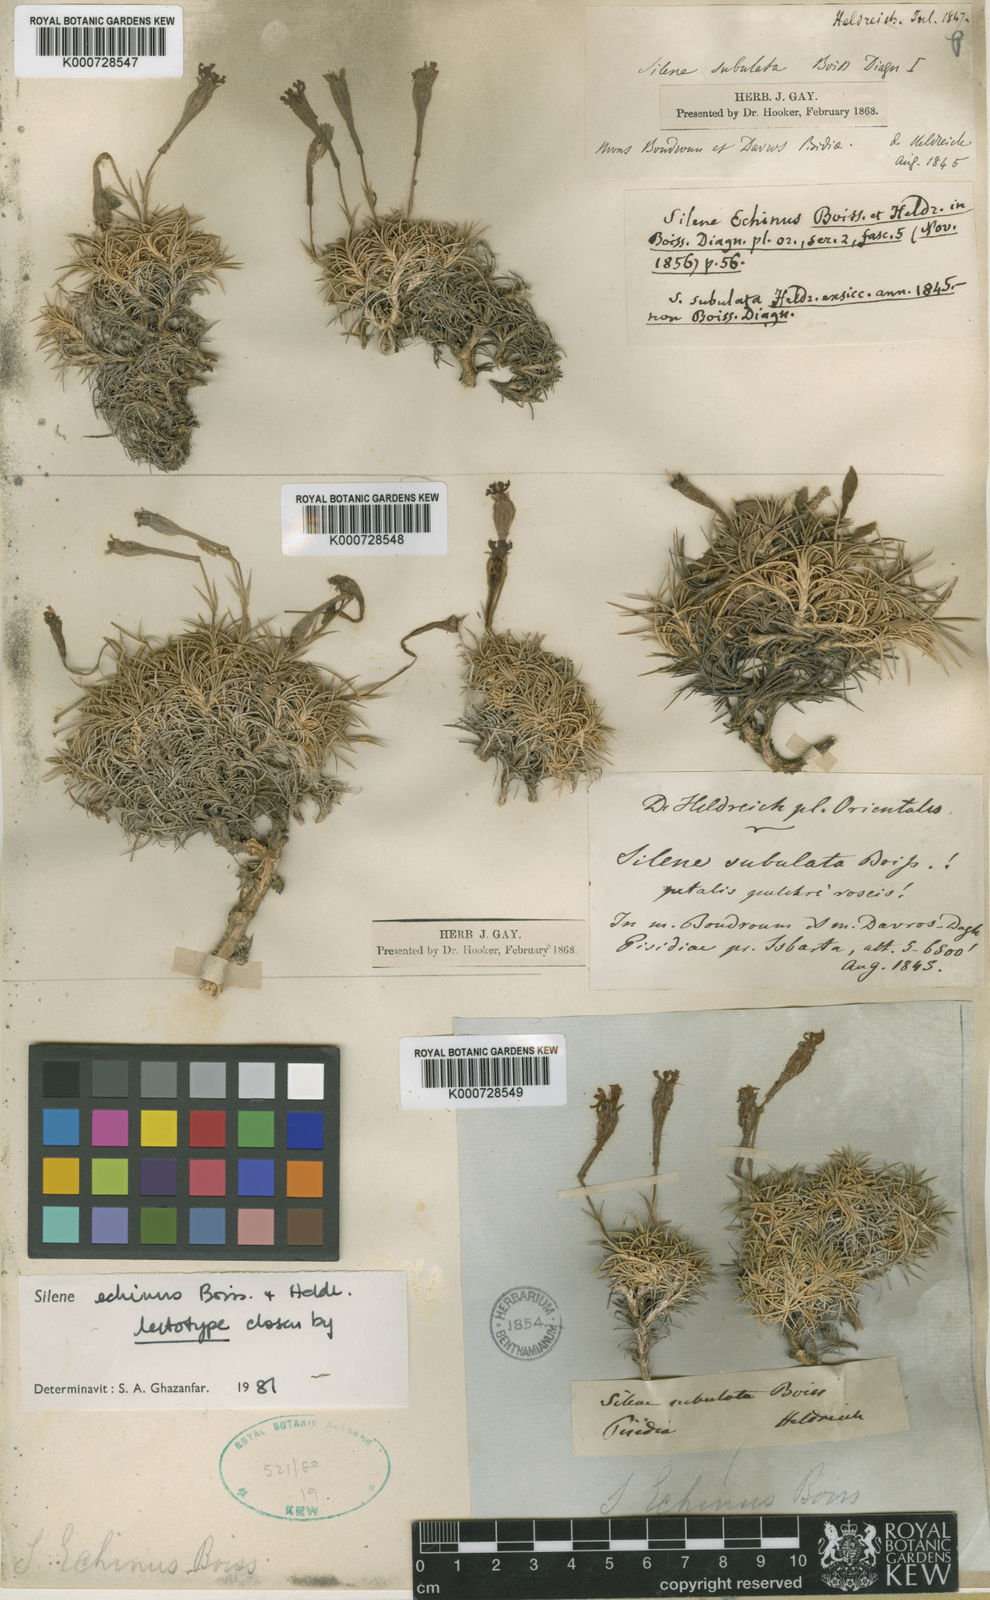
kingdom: Plantae
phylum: Tracheophyta
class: Magnoliopsida
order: Caryophyllales
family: Caryophyllaceae
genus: Silene
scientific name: Silene caryophylloides
